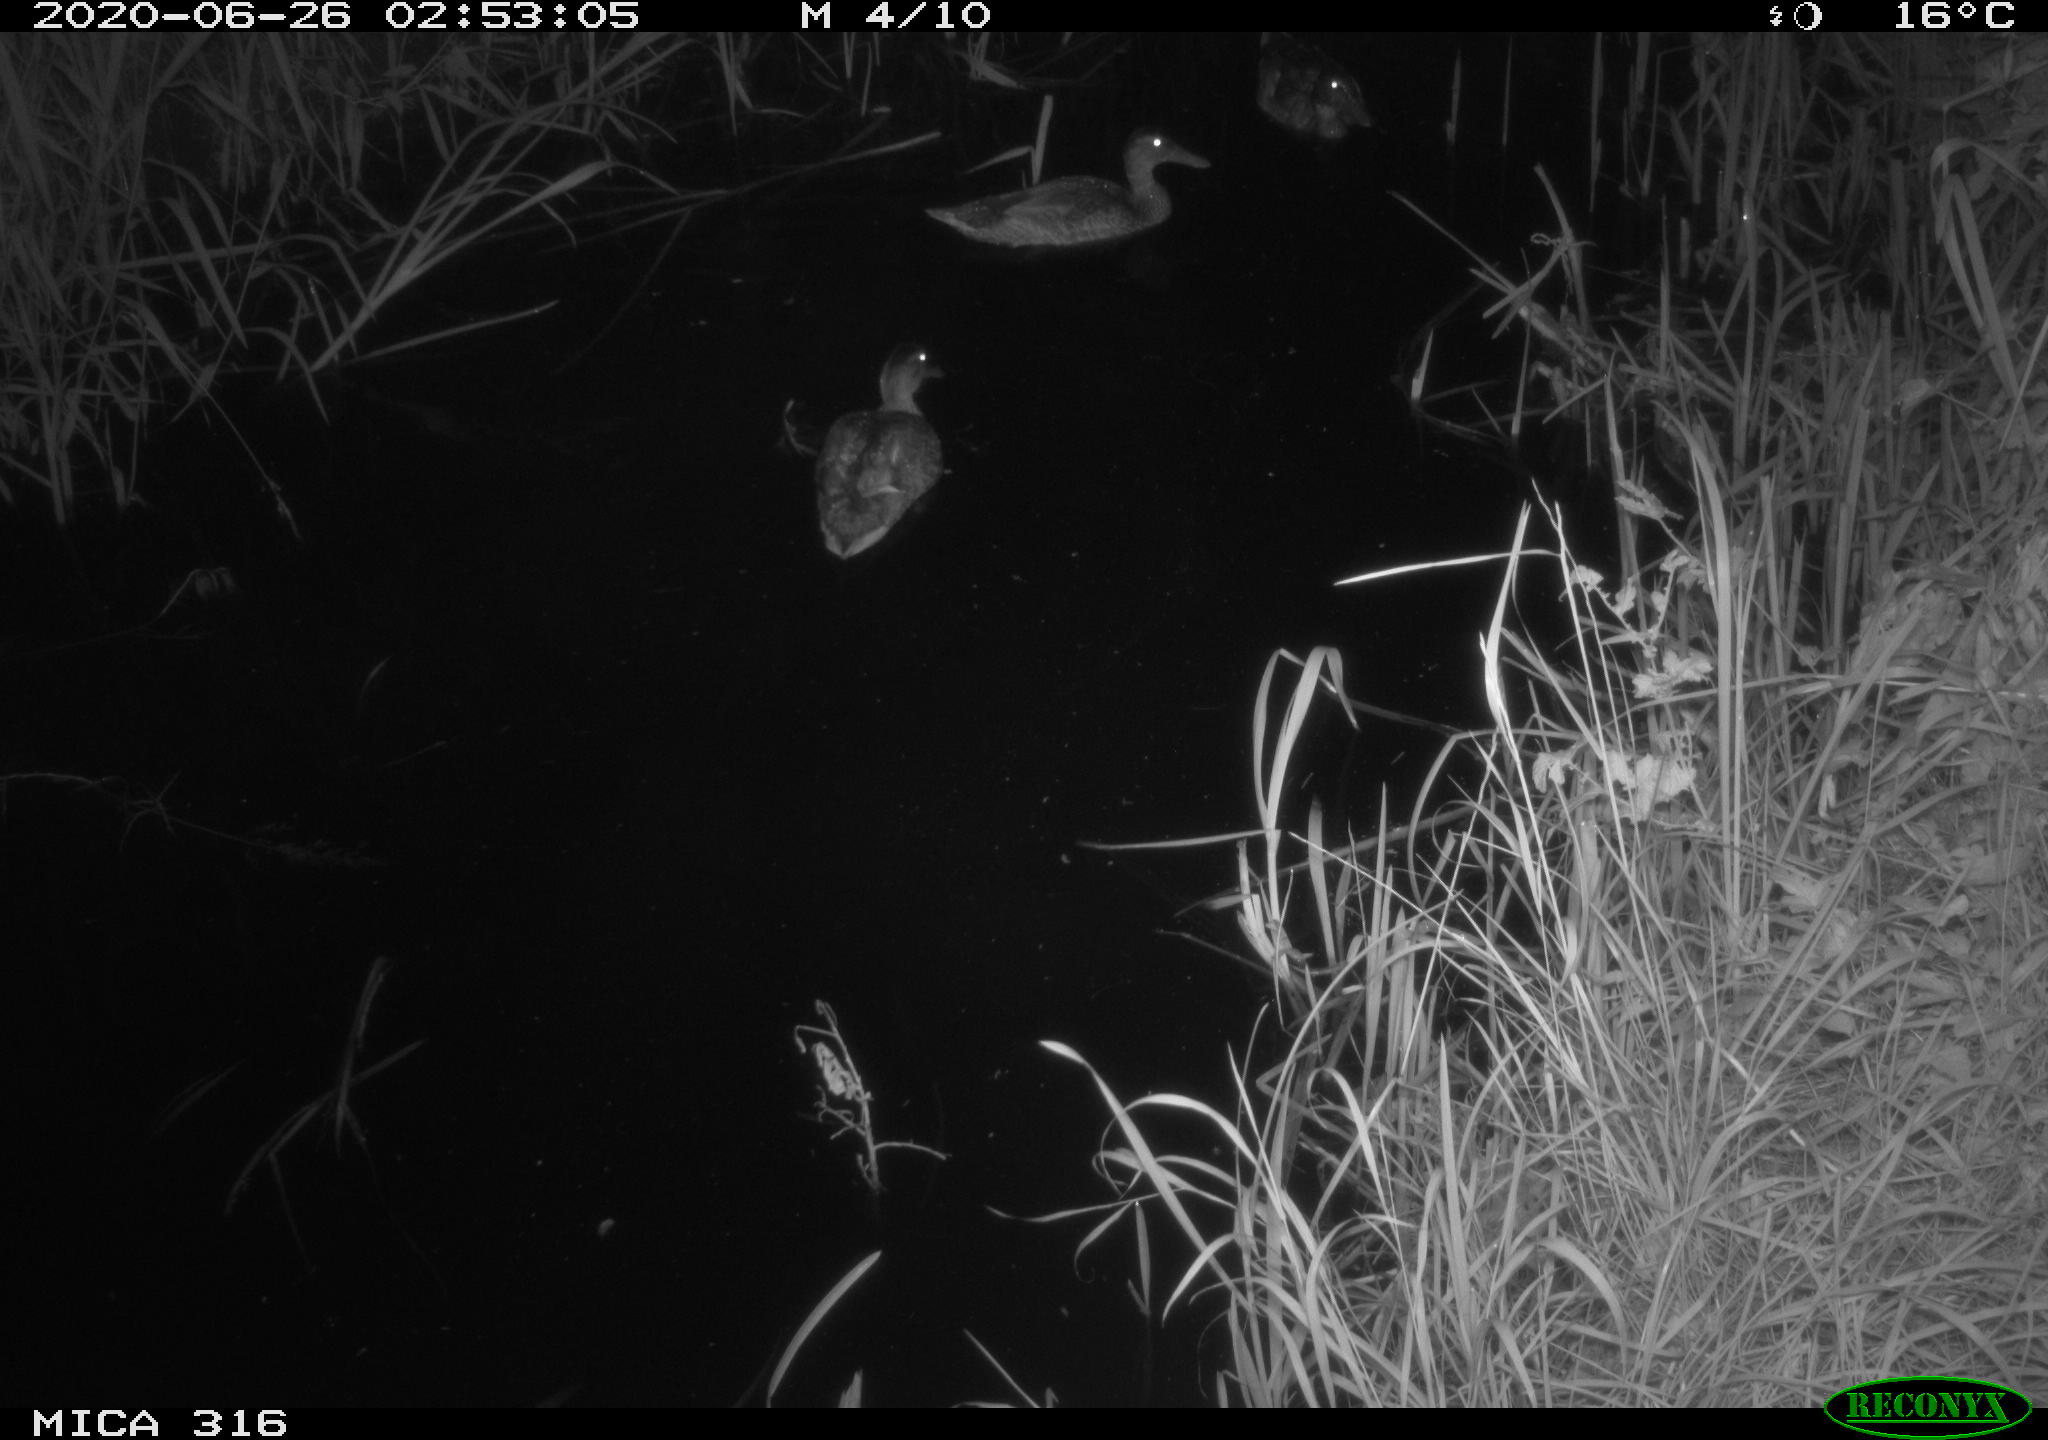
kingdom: Animalia
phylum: Chordata
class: Aves
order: Anseriformes
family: Anatidae
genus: Anas
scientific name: Anas platyrhynchos
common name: Mallard
